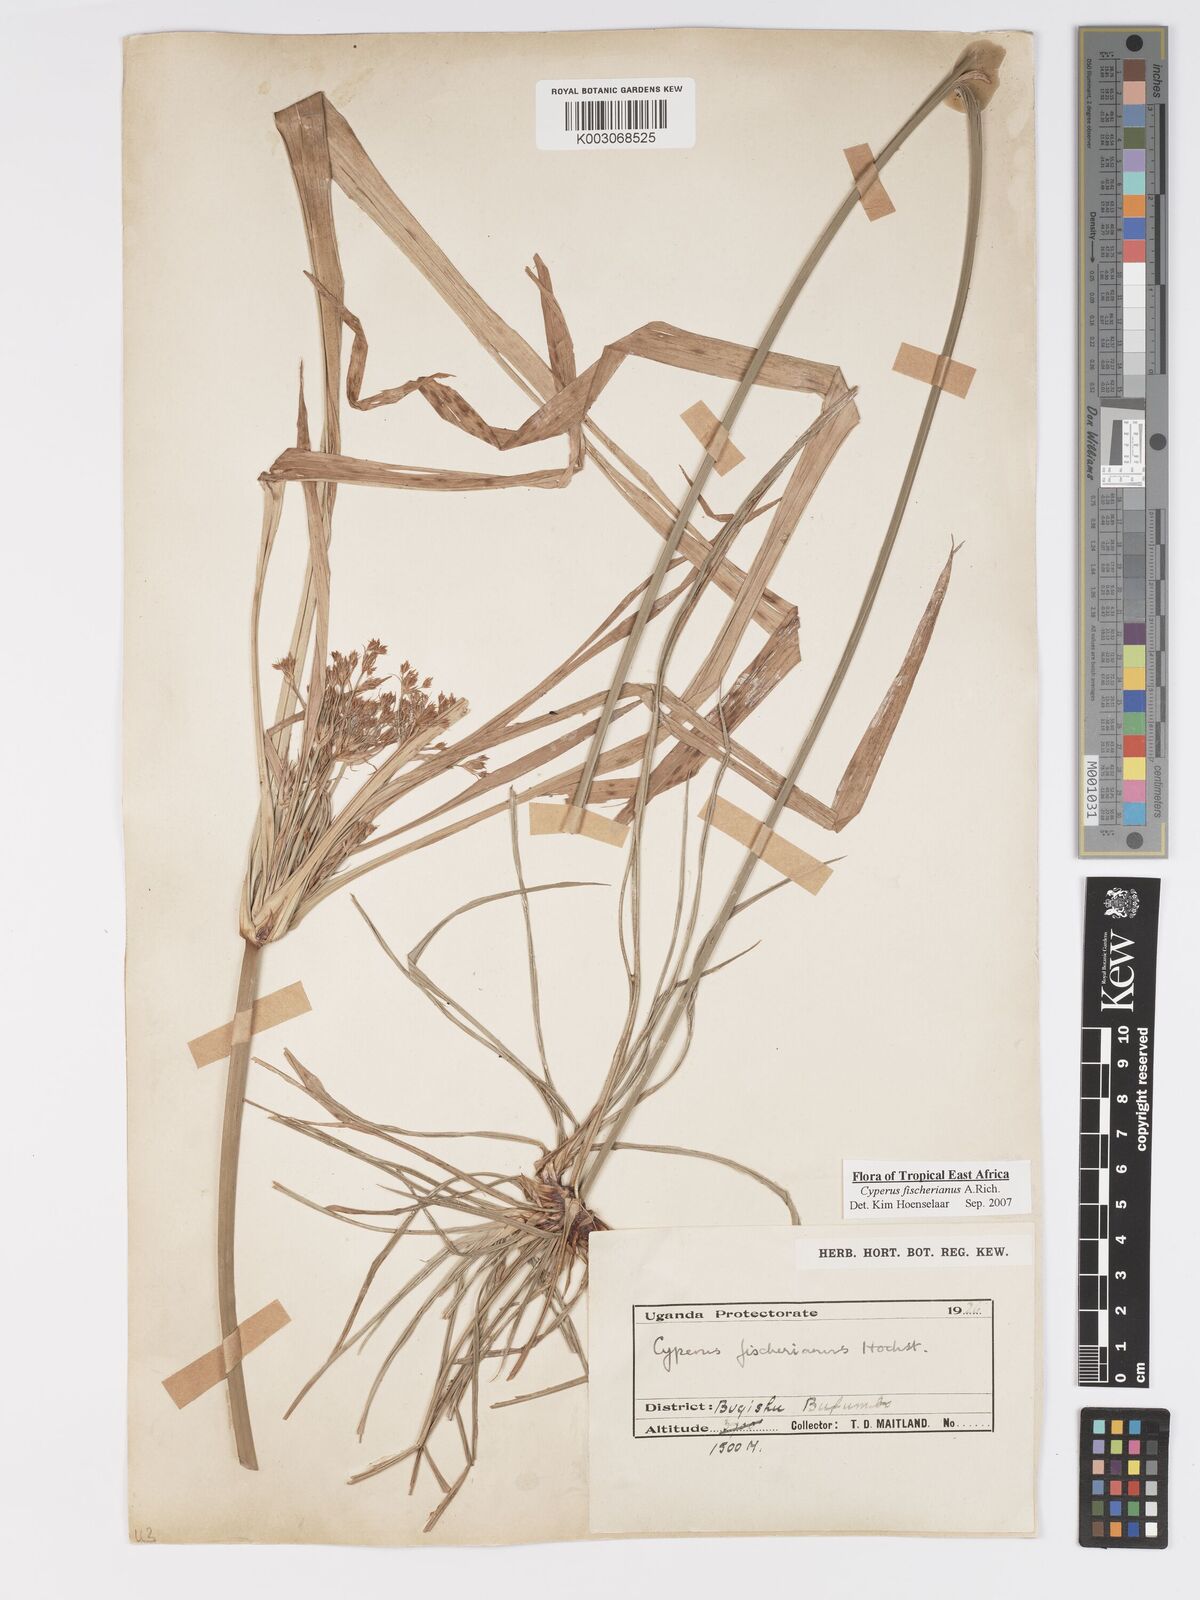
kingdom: Plantae
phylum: Tracheophyta
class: Liliopsida
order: Poales
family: Cyperaceae
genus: Cyperus
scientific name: Cyperus fischerianus
